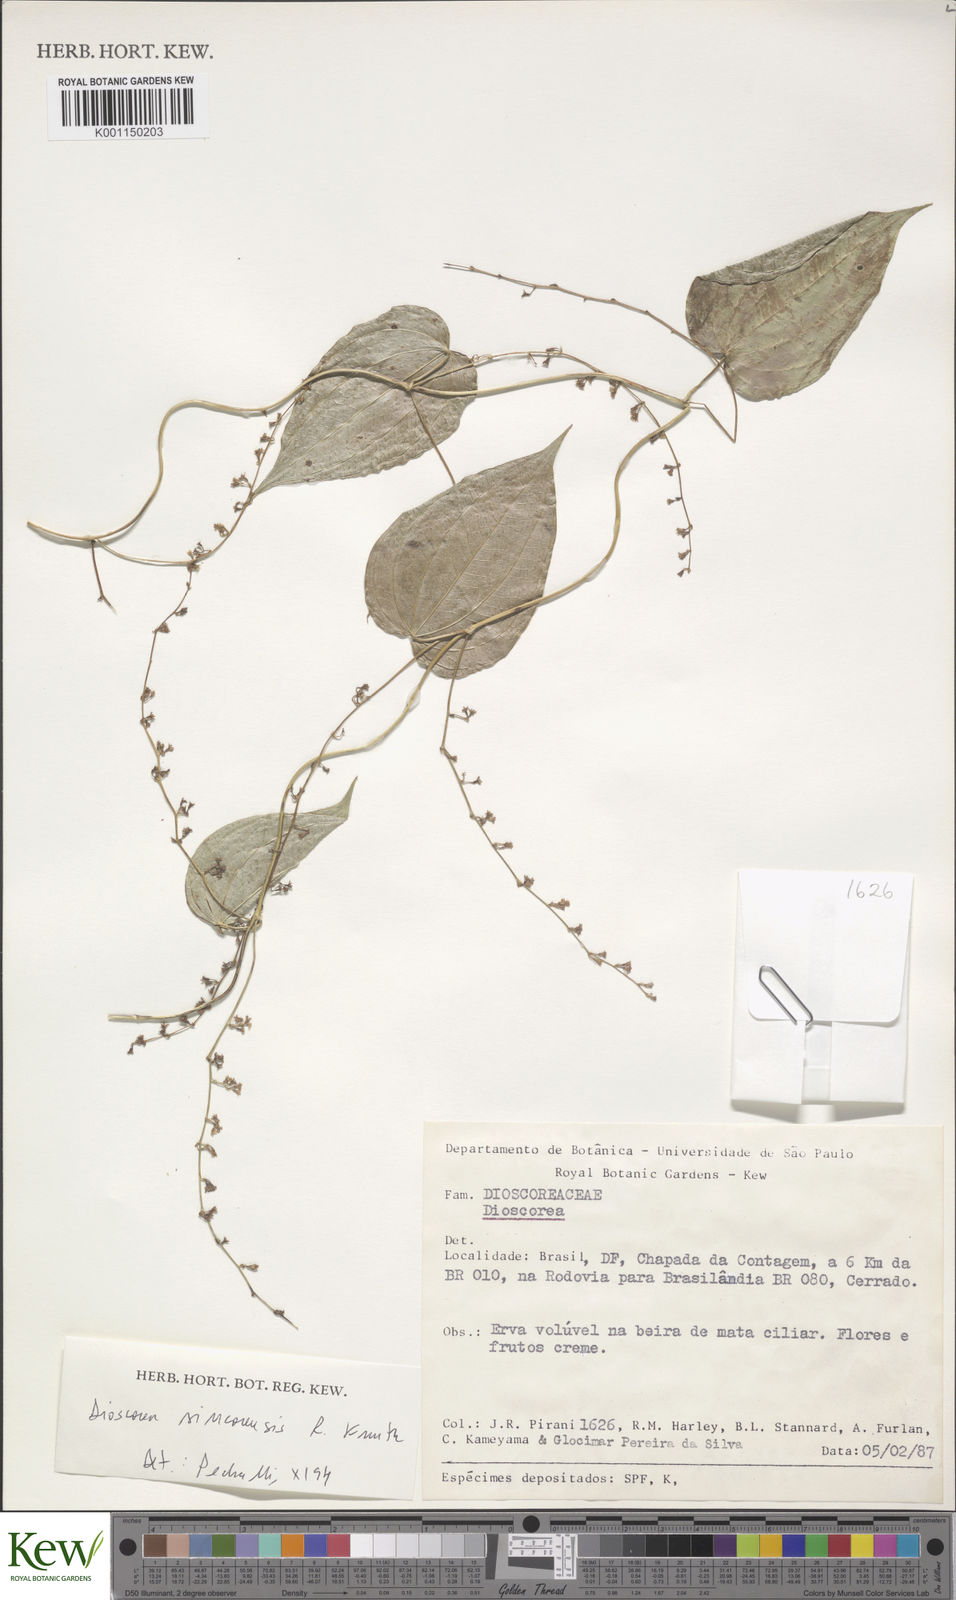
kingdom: Plantae
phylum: Tracheophyta
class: Liliopsida
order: Dioscoreales
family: Dioscoreaceae
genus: Dioscorea
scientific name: Dioscorea sincorensis
